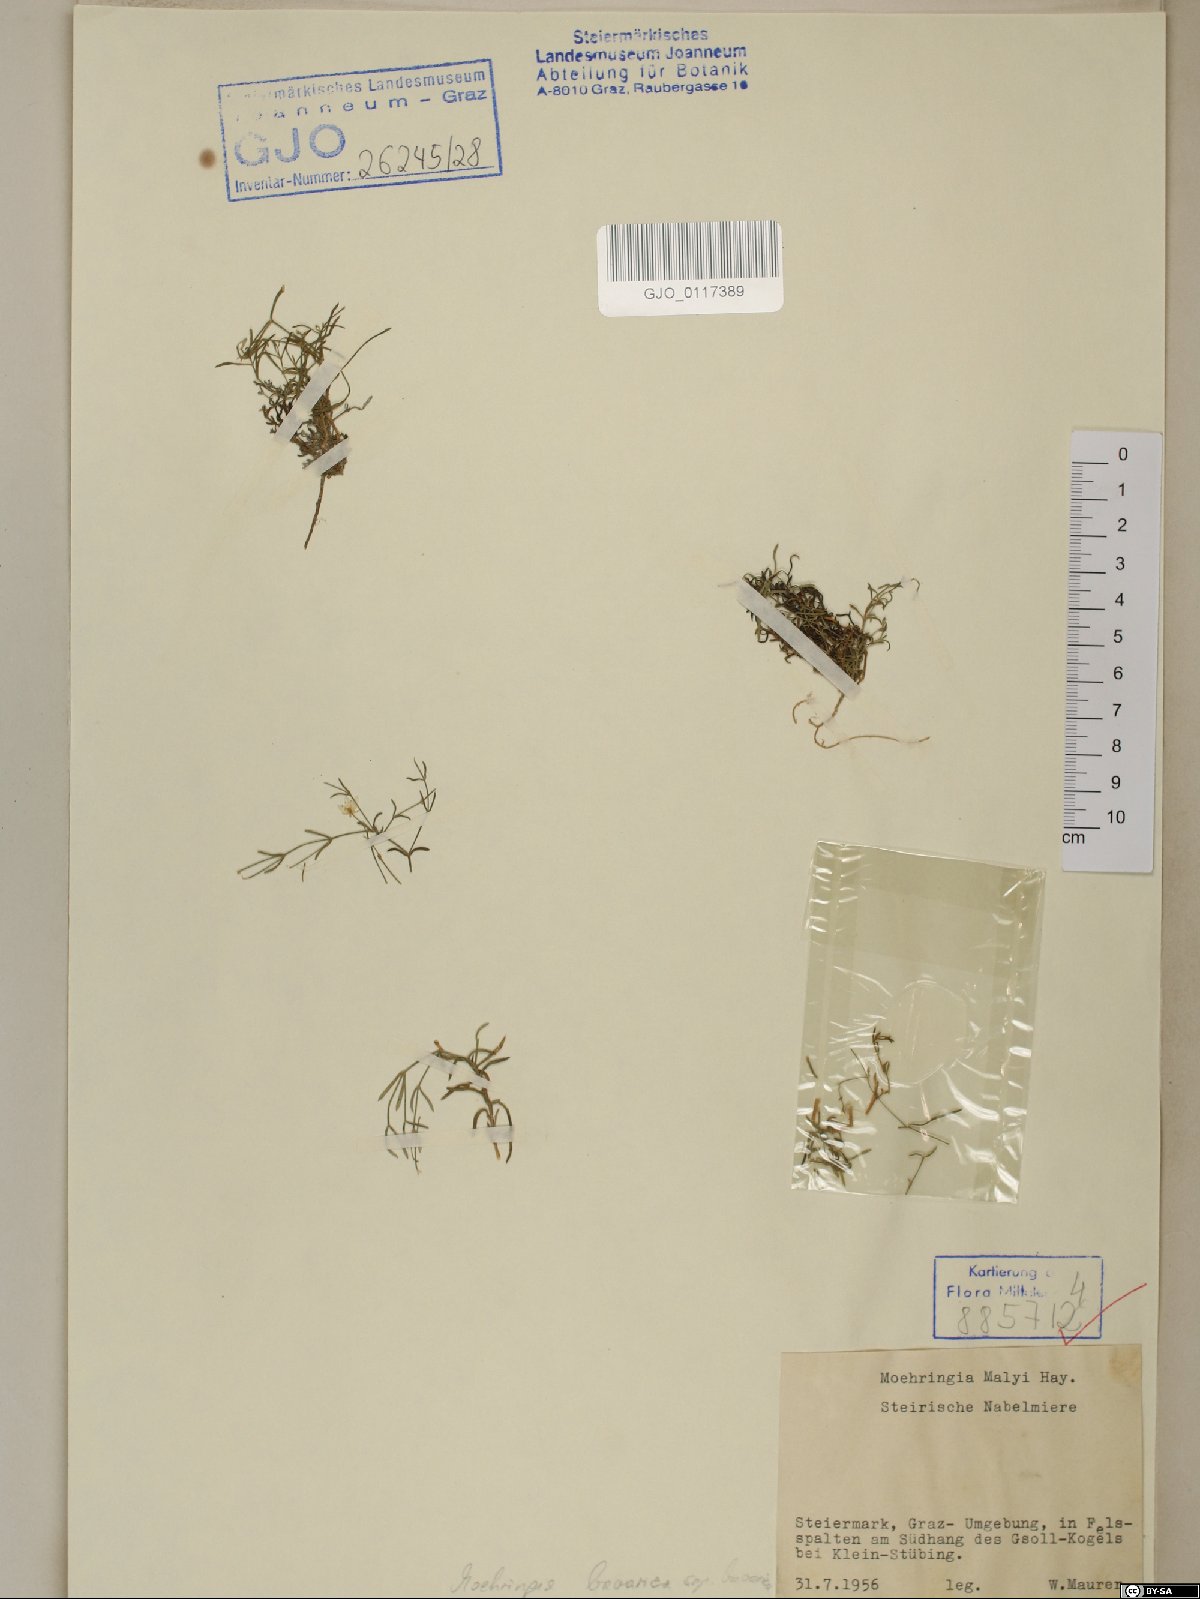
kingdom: Plantae
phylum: Tracheophyta
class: Magnoliopsida
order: Caryophyllales
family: Caryophyllaceae
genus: Moehringia
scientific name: Moehringia bavarica
